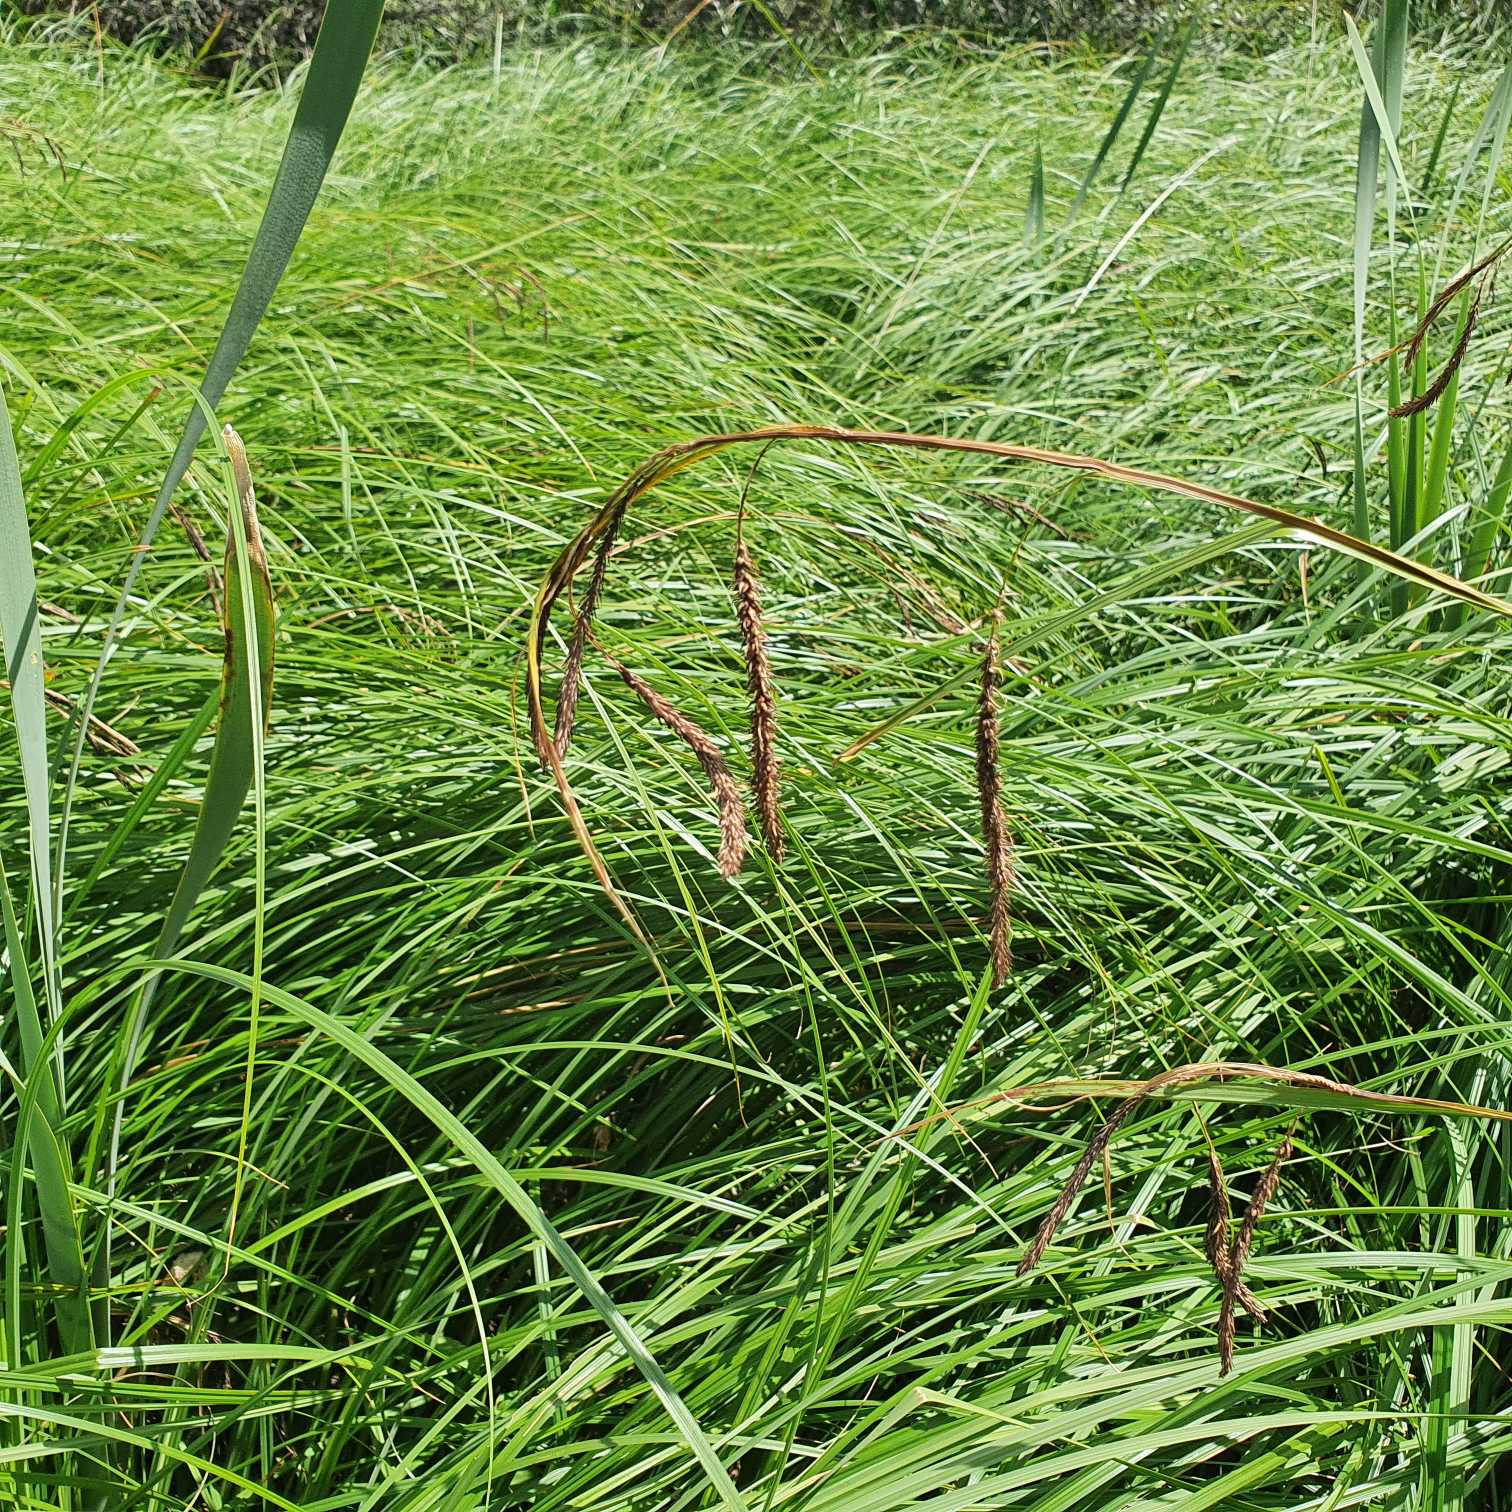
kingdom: Plantae
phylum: Tracheophyta
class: Liliopsida
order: Poales
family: Cyperaceae
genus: Carex
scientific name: Carex acuta
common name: Nikkende star
